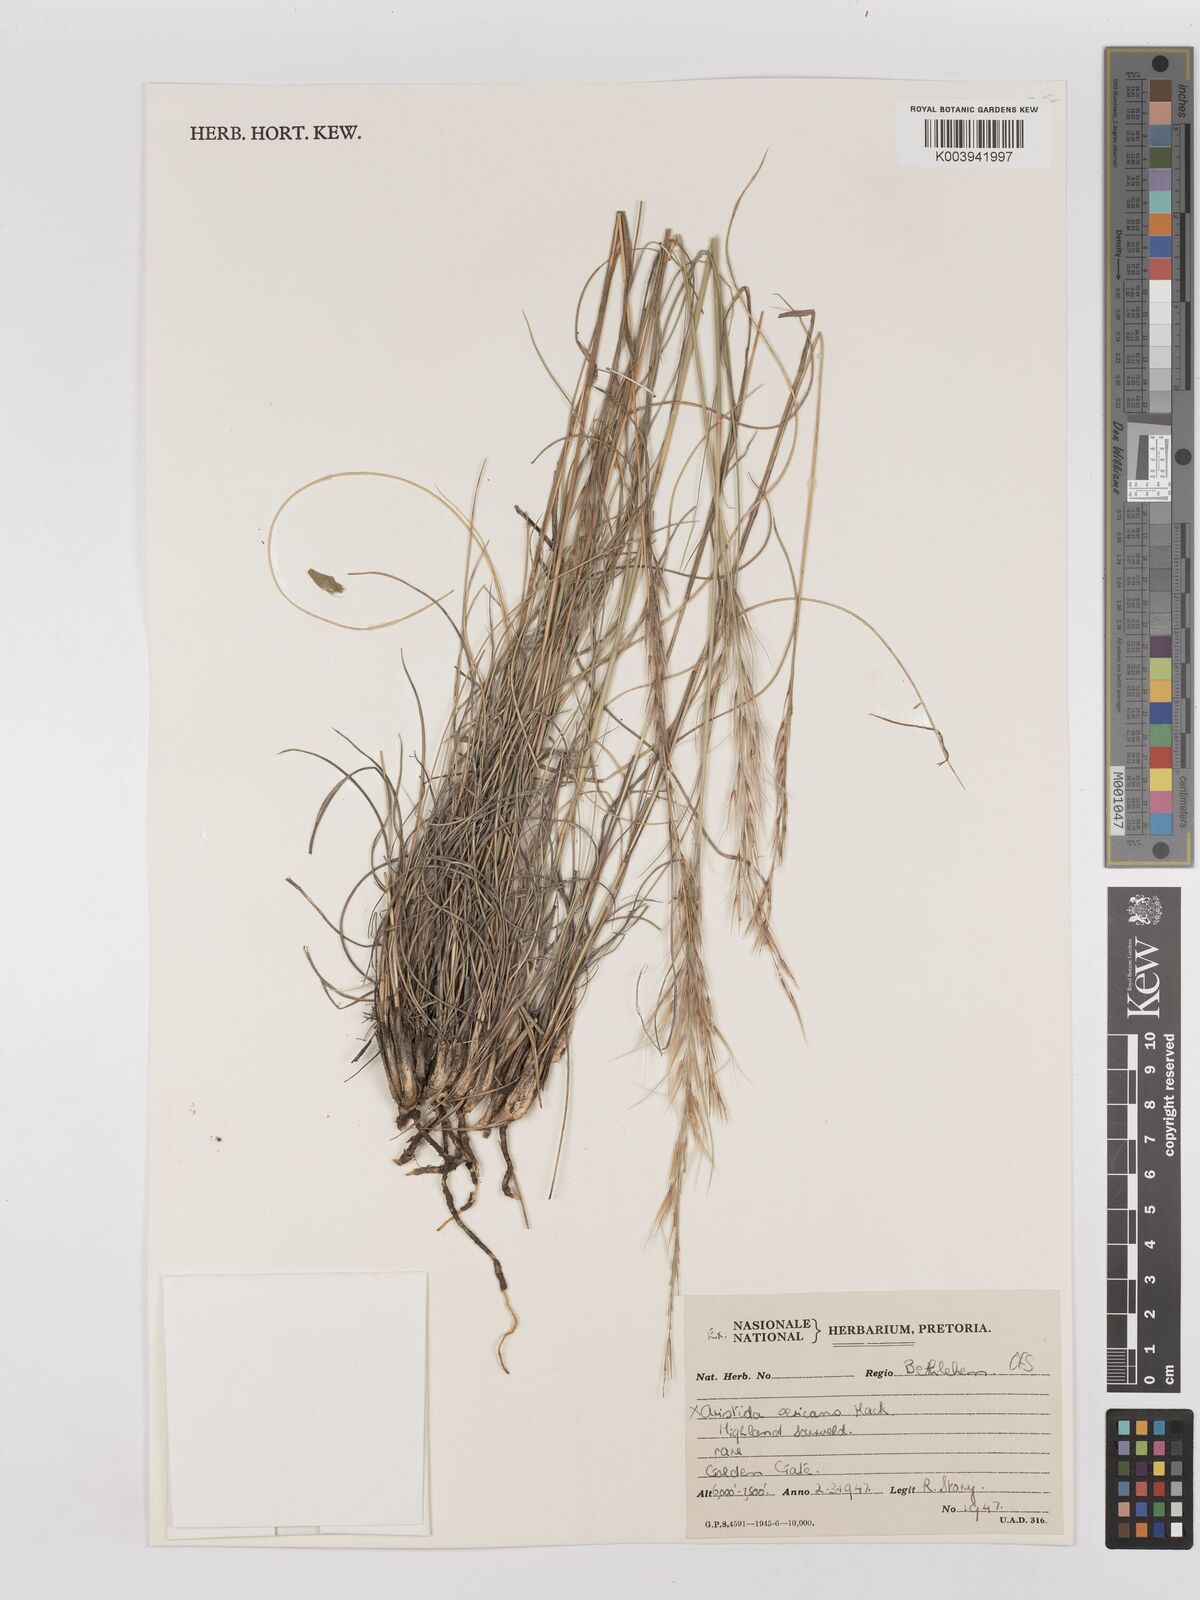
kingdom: Plantae
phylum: Tracheophyta
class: Liliopsida
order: Poales
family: Poaceae
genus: Stipagrostis
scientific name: Stipagrostis zeyheri
